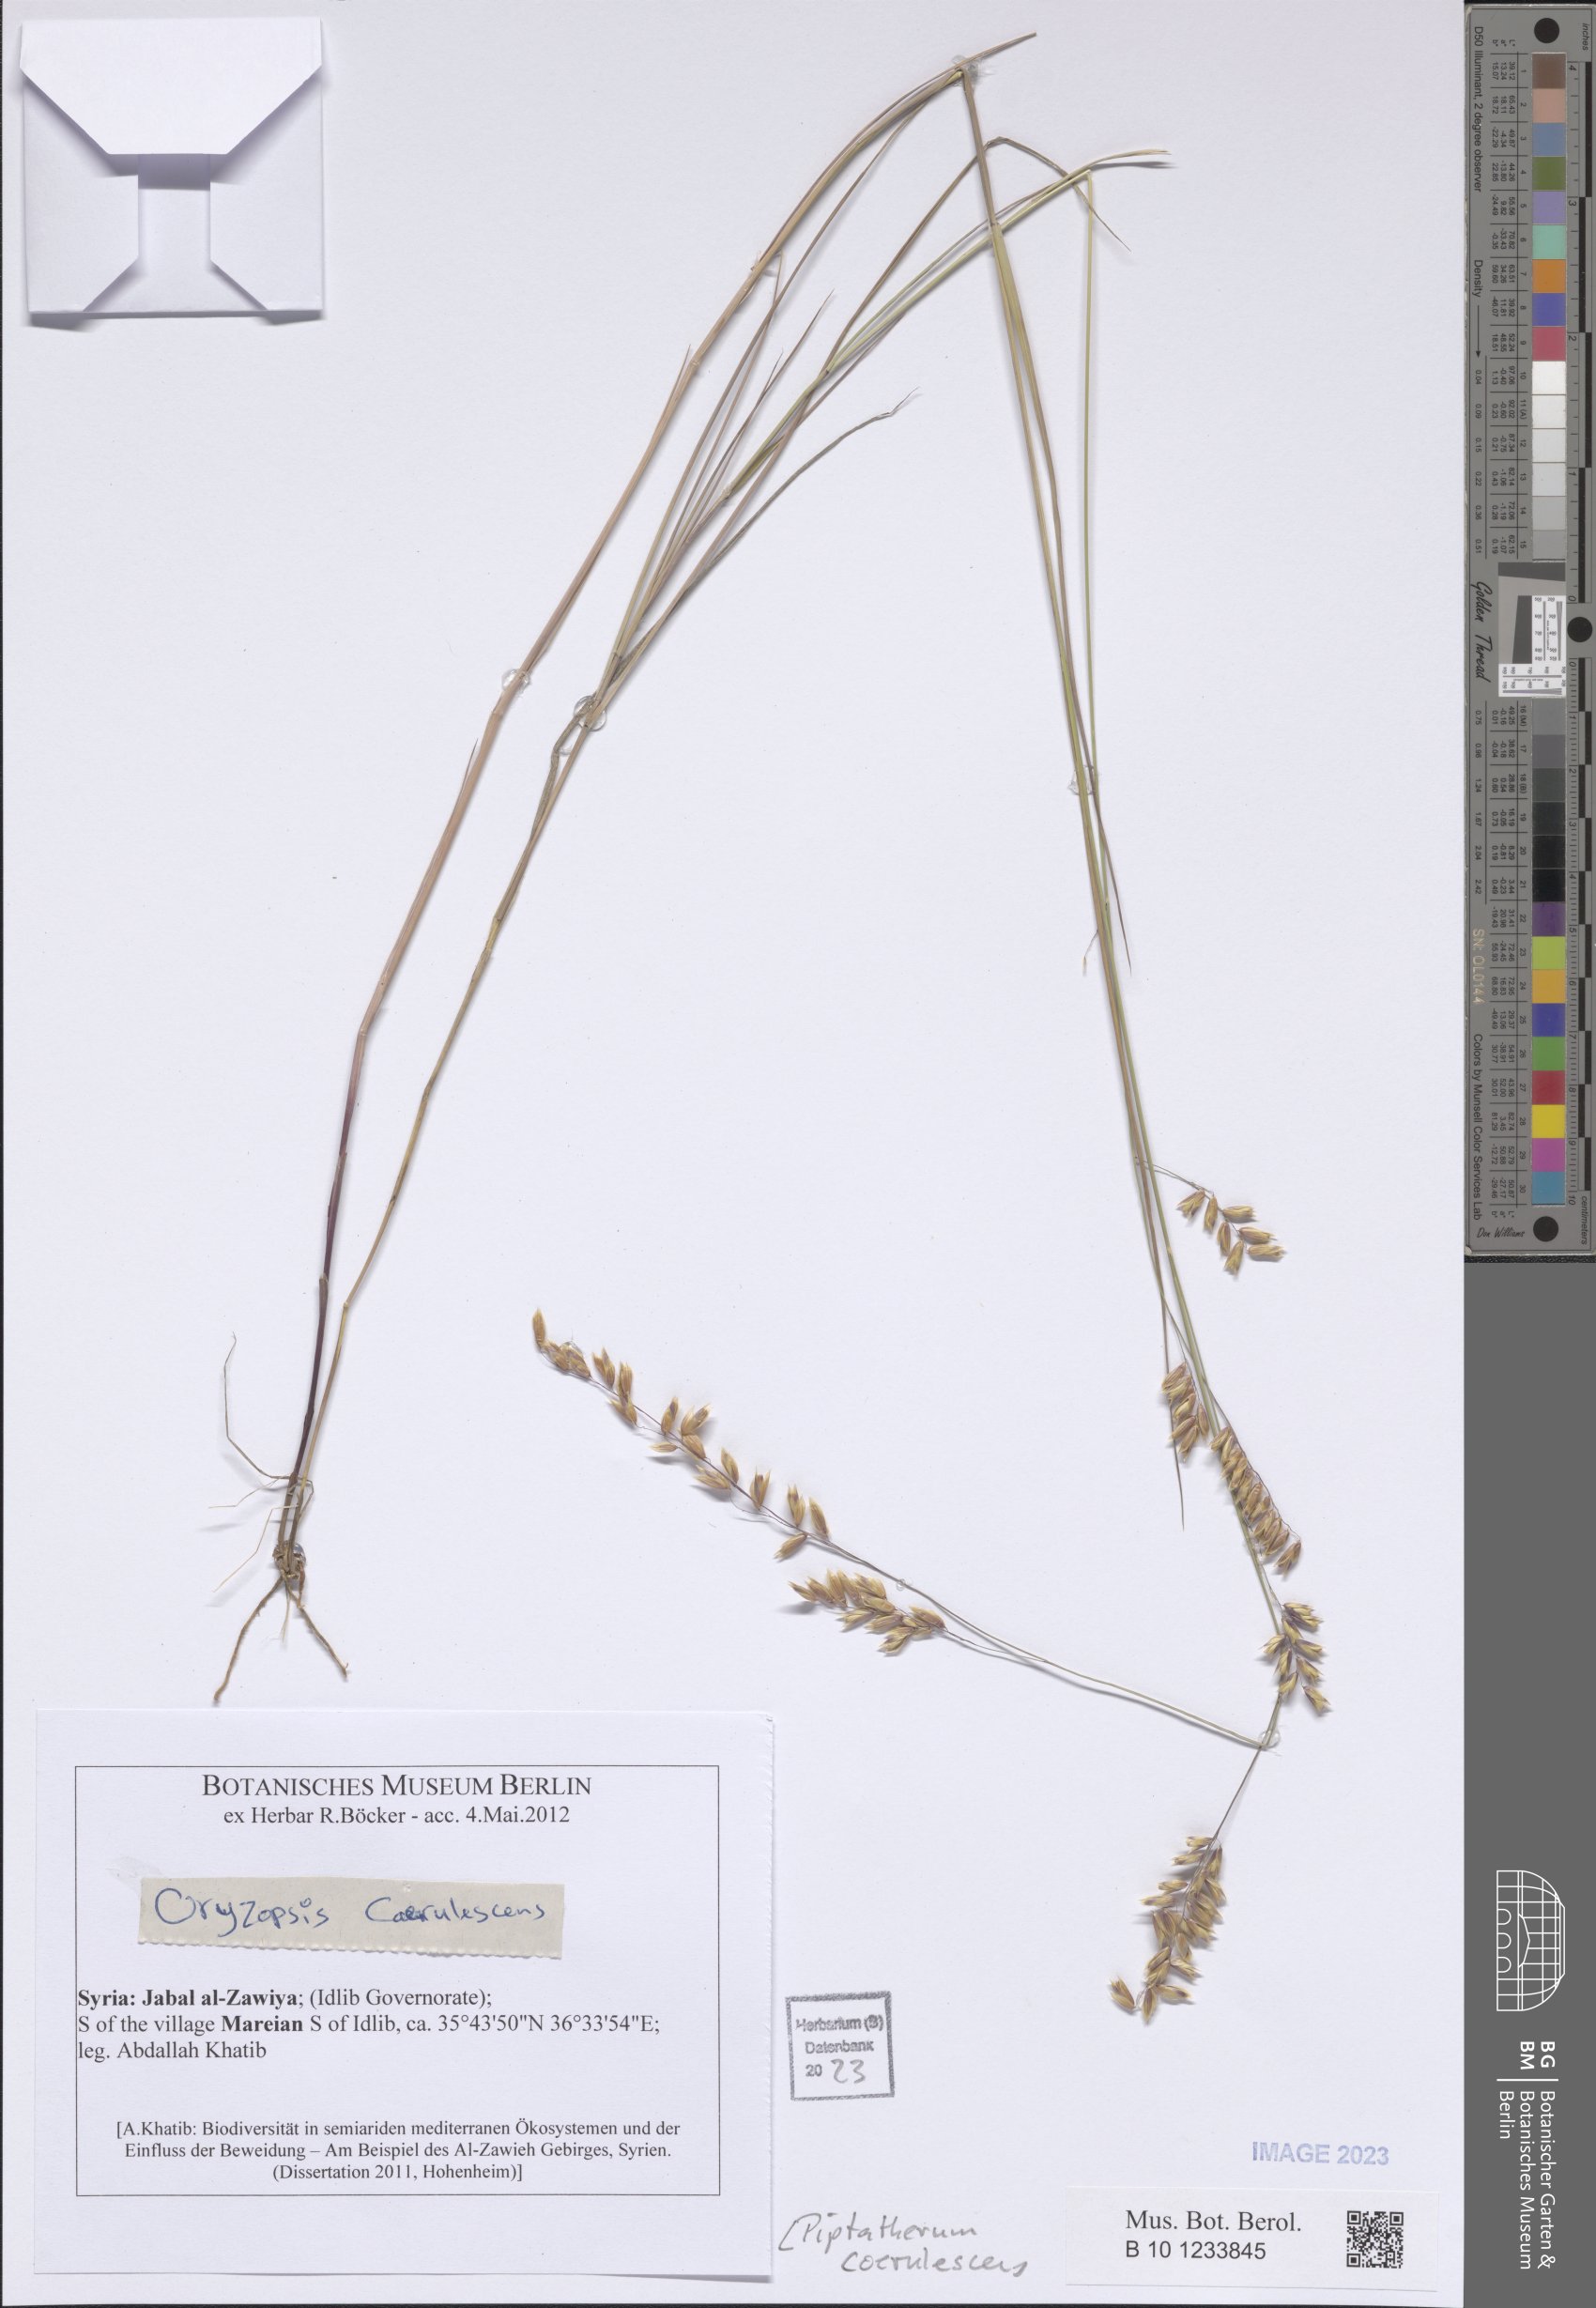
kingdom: Plantae
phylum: Tracheophyta
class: Liliopsida
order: Poales
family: Poaceae
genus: Piptatherum
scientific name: Piptatherum coerulescens
